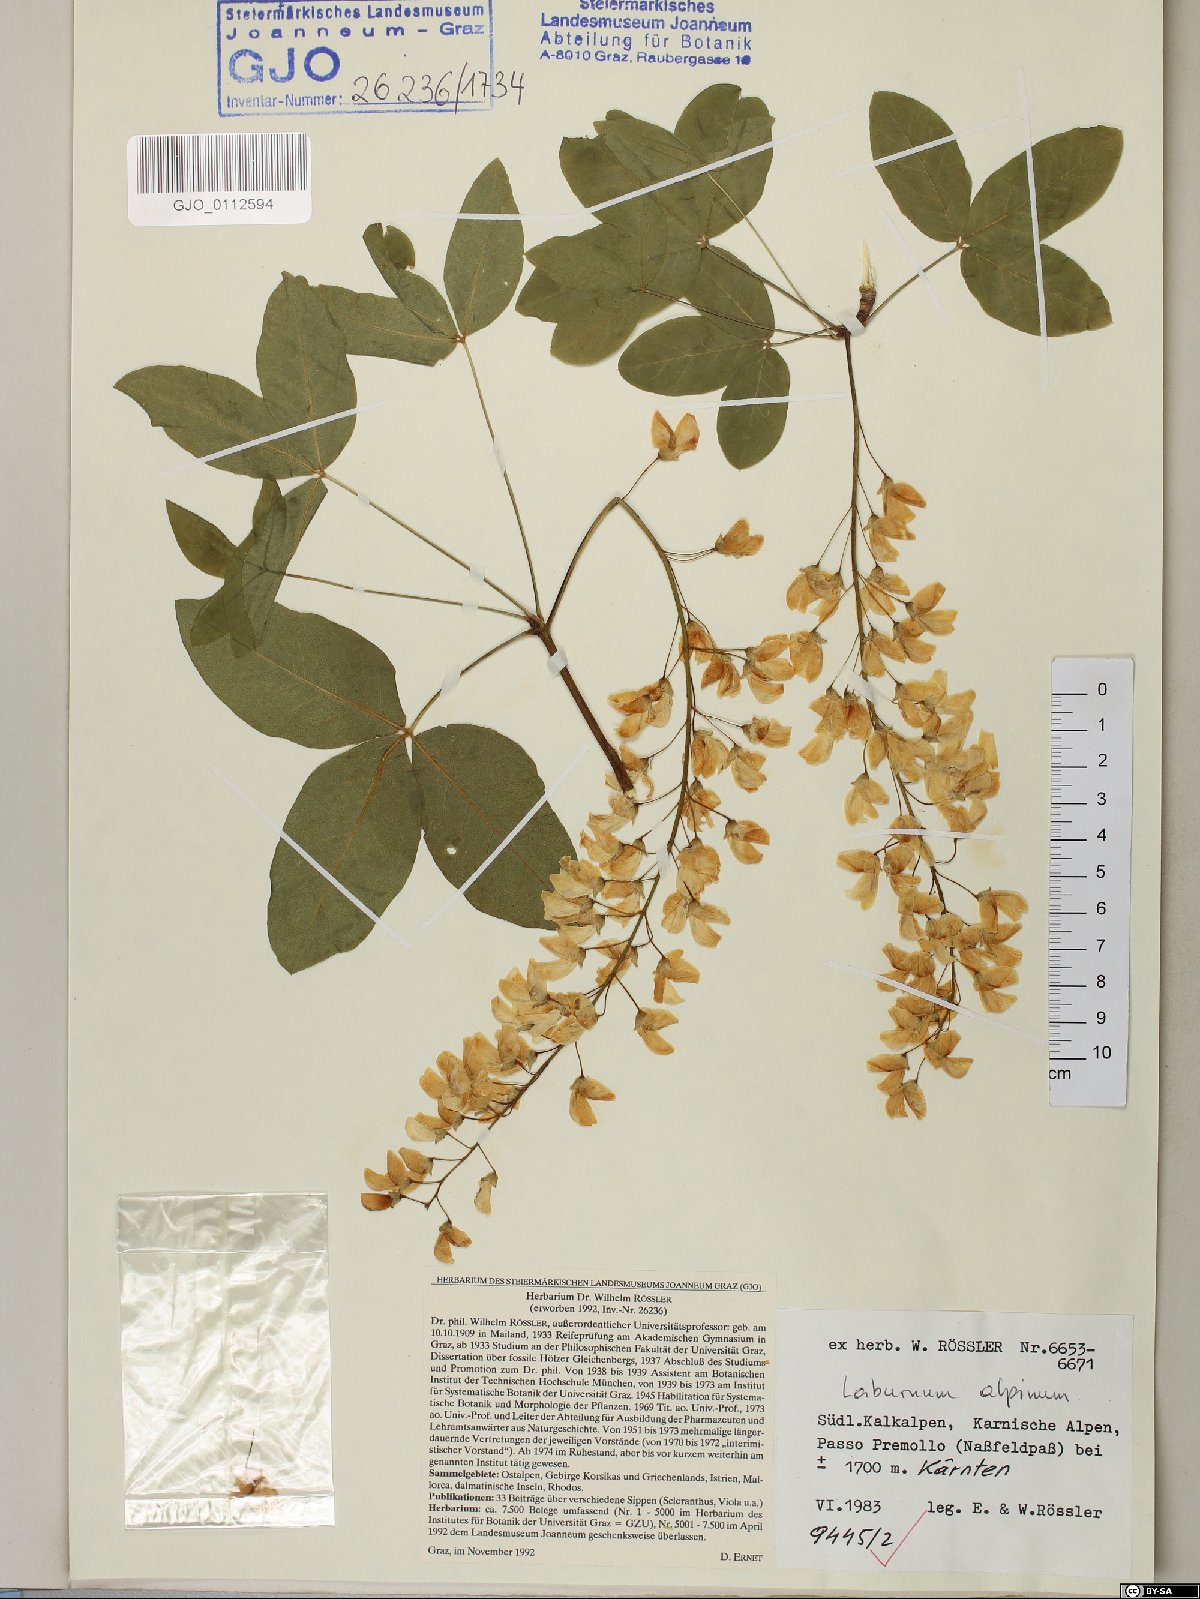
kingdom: Plantae
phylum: Tracheophyta
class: Magnoliopsida
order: Fabales
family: Fabaceae
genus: Laburnum
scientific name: Laburnum alpinum
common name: Scottish laburnum
